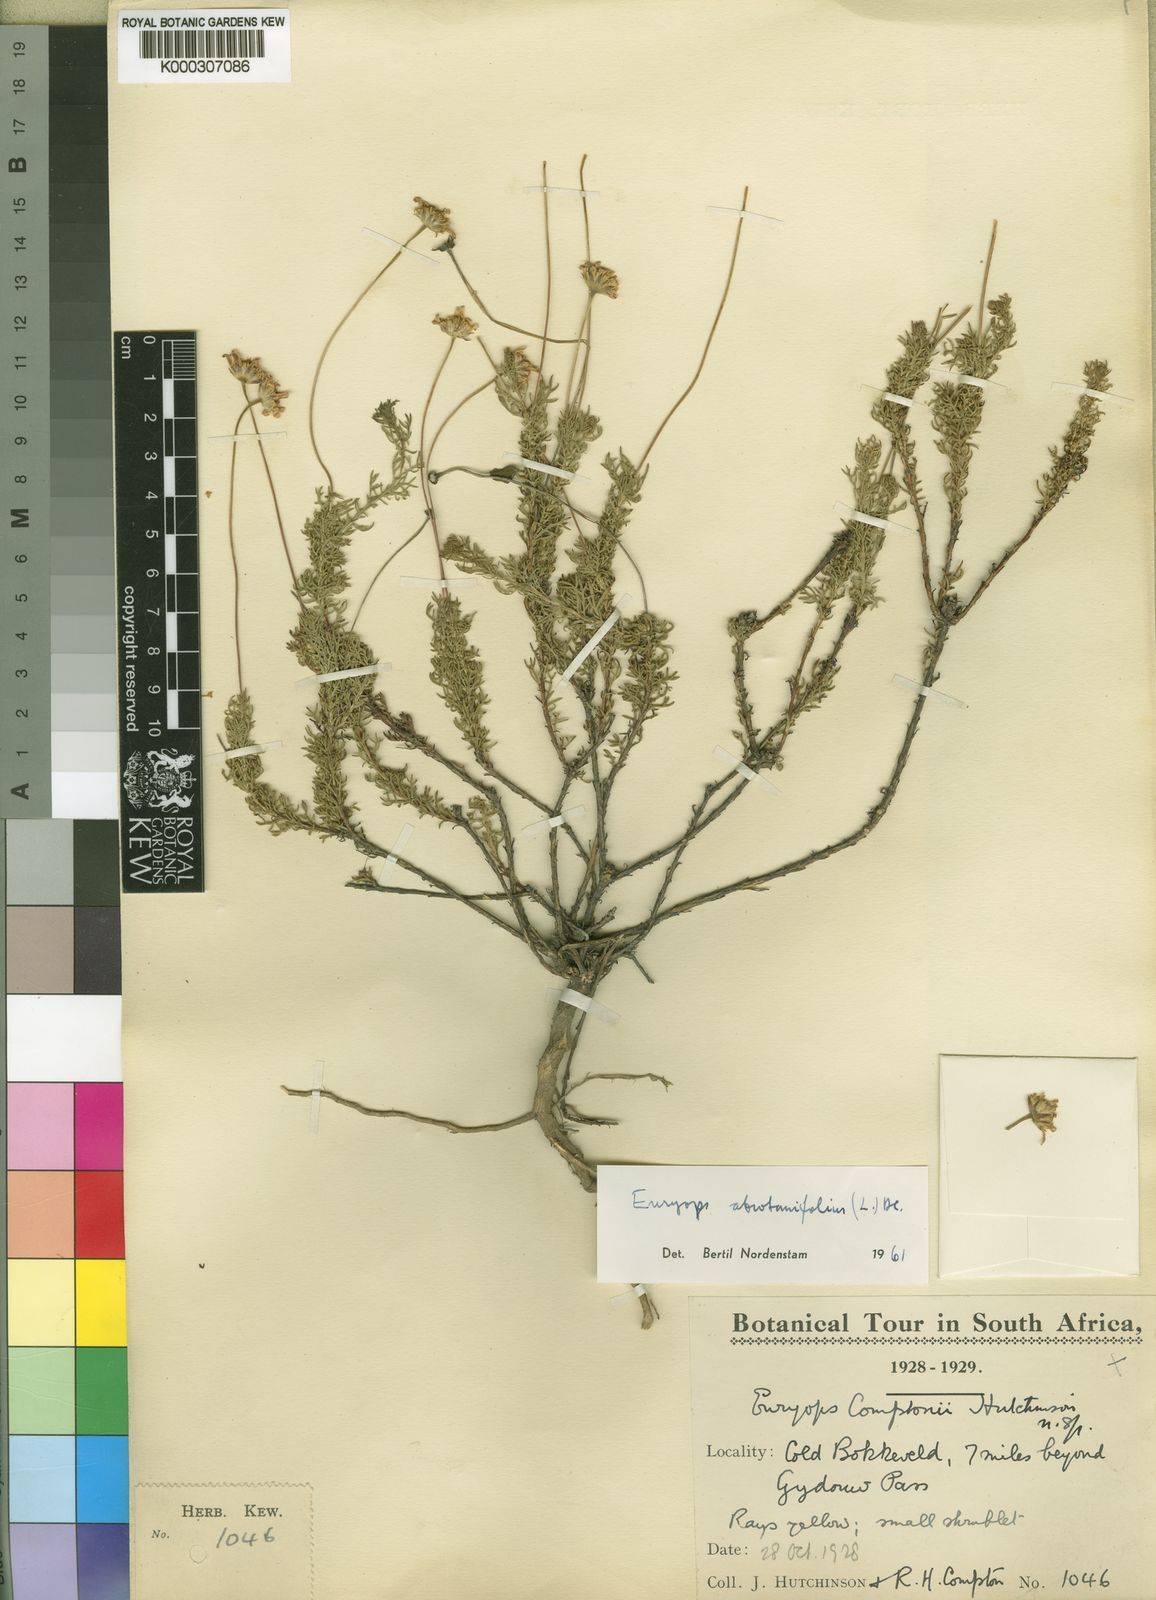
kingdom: Plantae
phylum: Tracheophyta
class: Magnoliopsida
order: Asterales
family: Asteraceae
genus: Euryops
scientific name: Euryops abrotanifolius
